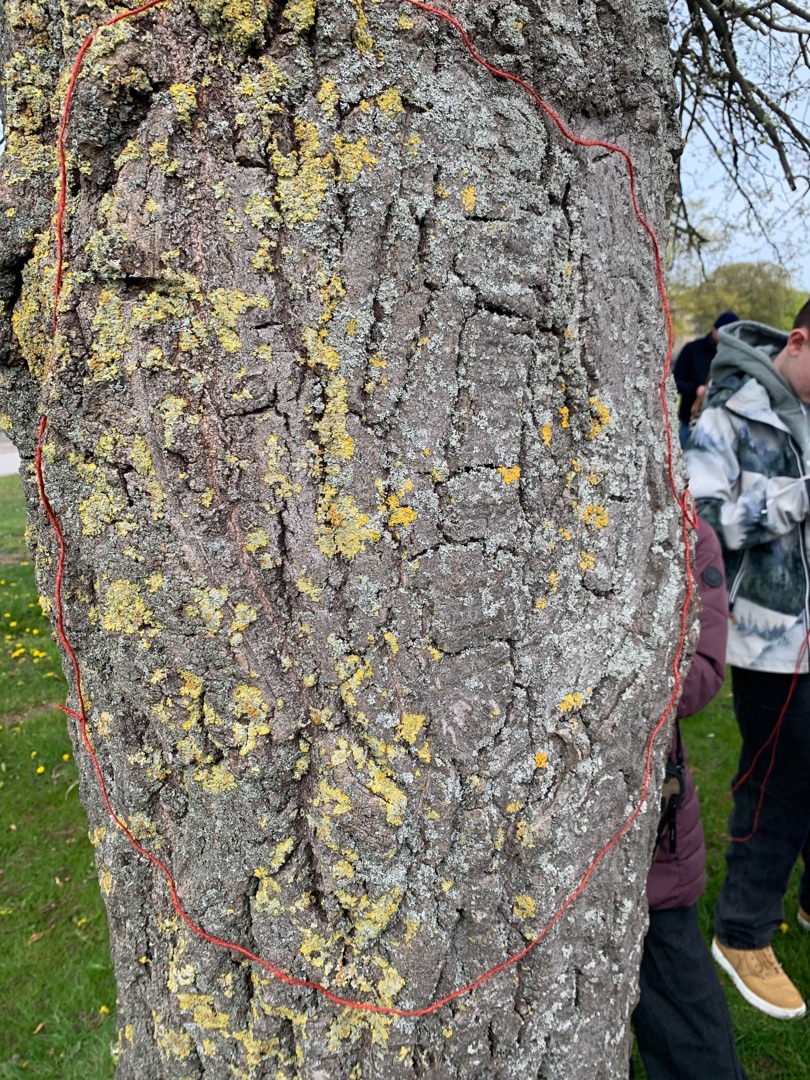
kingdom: Fungi
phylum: Ascomycota
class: Lecanoromycetes
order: Teloschistales
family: Teloschistaceae
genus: Xanthoria
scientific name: Xanthoria parietina
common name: Almindelig væggelav
